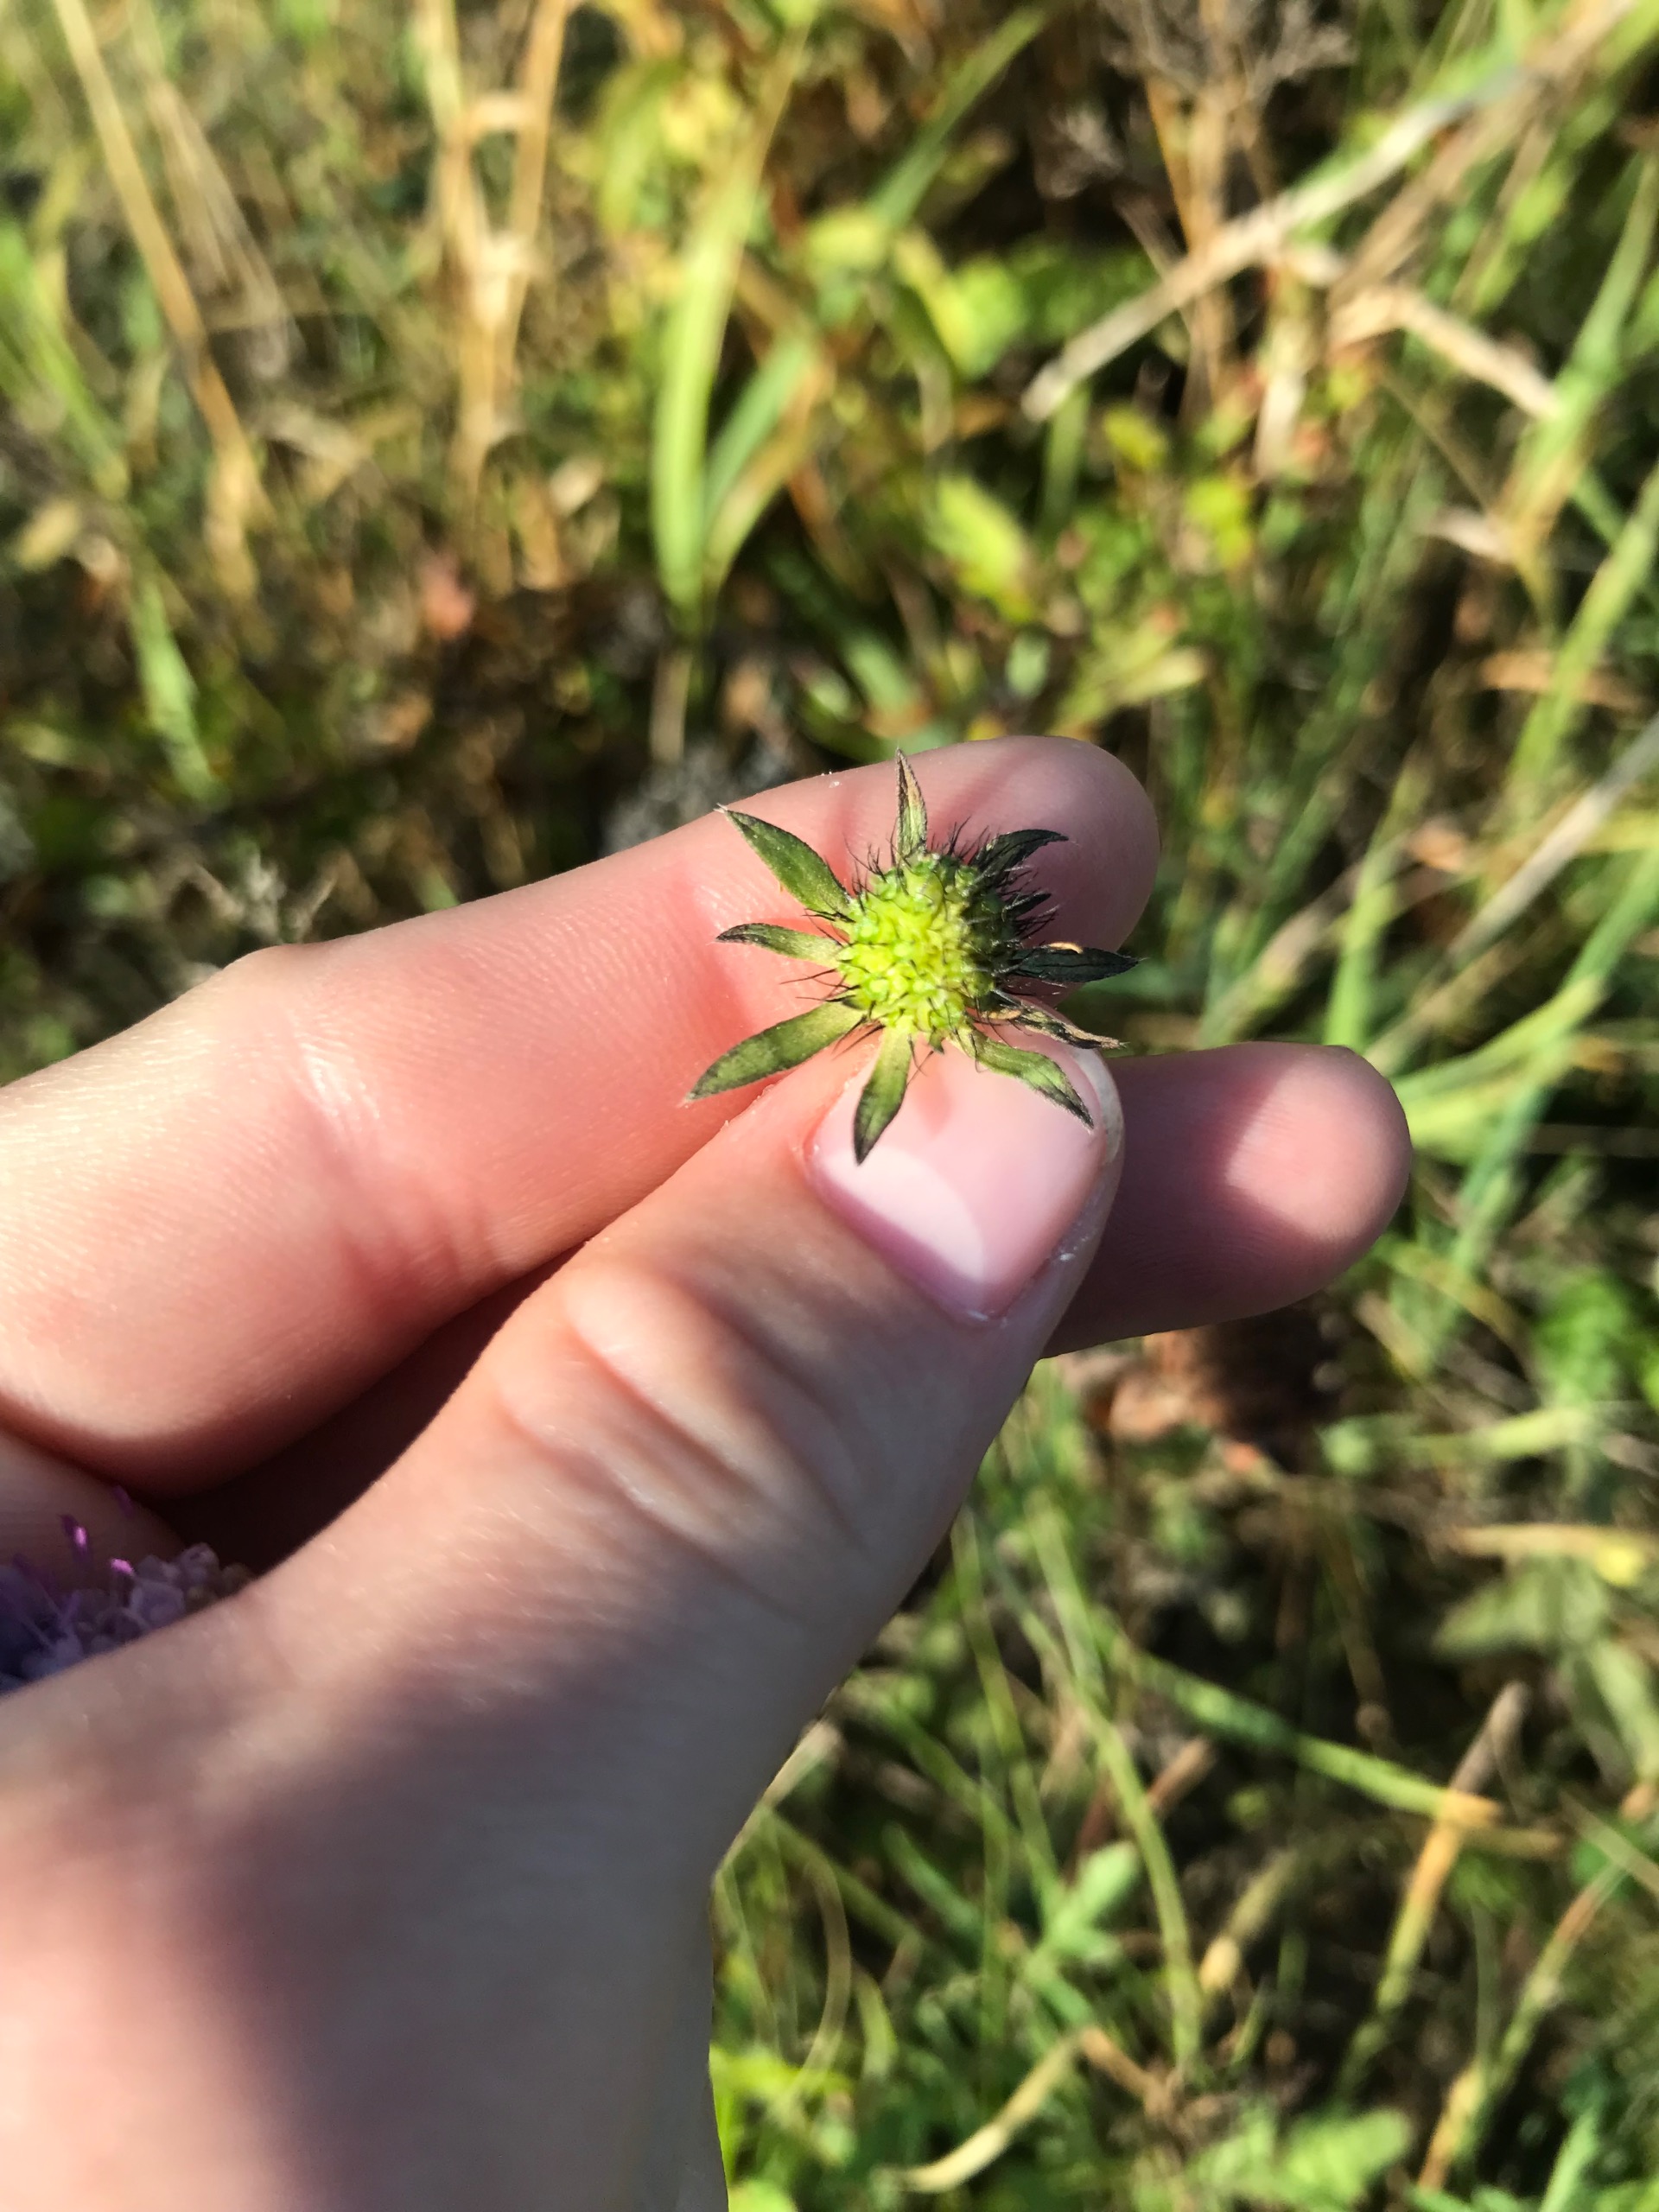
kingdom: Plantae
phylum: Tracheophyta
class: Magnoliopsida
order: Dipsacales
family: Caprifoliaceae
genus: Scabiosa
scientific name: Scabiosa columbaria
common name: Due-skabiose
